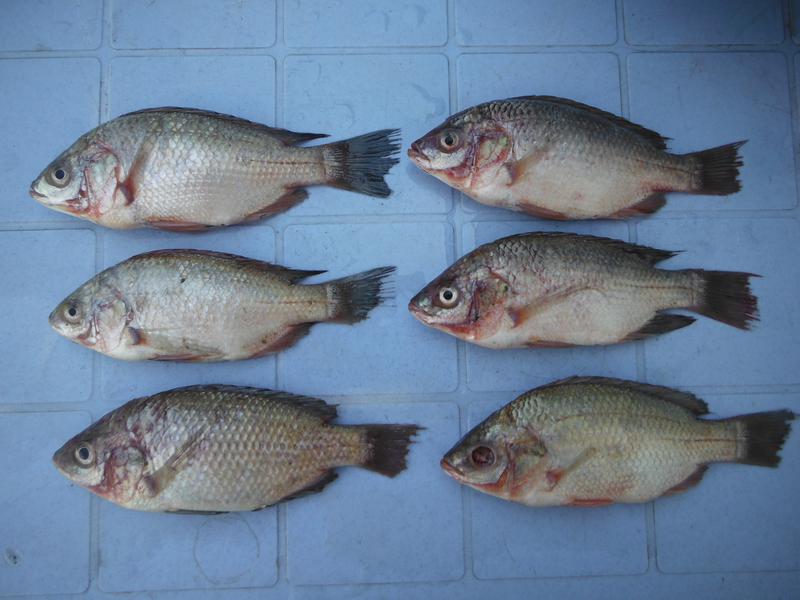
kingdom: Animalia
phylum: Chordata
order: Perciformes
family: Cichlidae
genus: Oreochromis
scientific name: Oreochromis esculentus
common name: Carp
